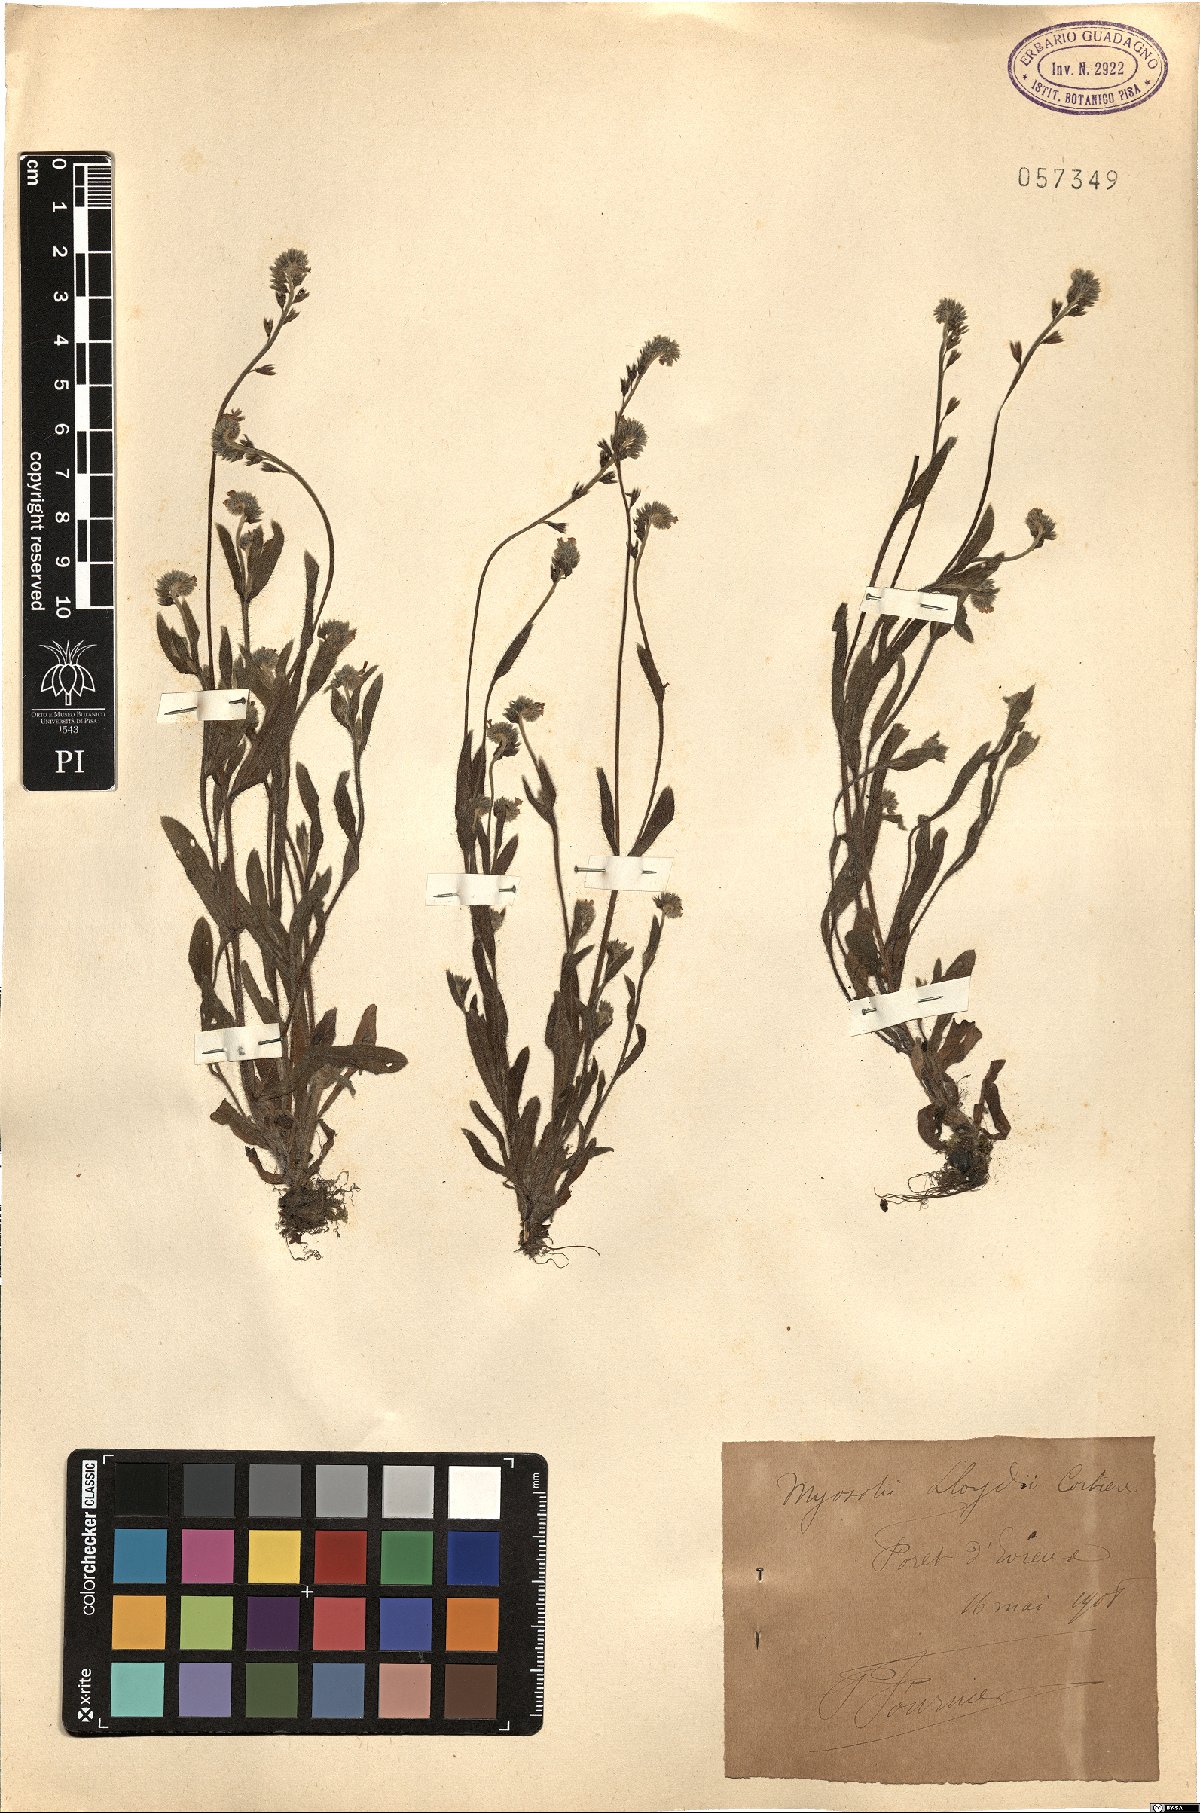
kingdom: Plantae
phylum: Tracheophyta
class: Magnoliopsida
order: Boraginales
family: Boraginaceae
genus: Myosotis
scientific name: Myosotis
